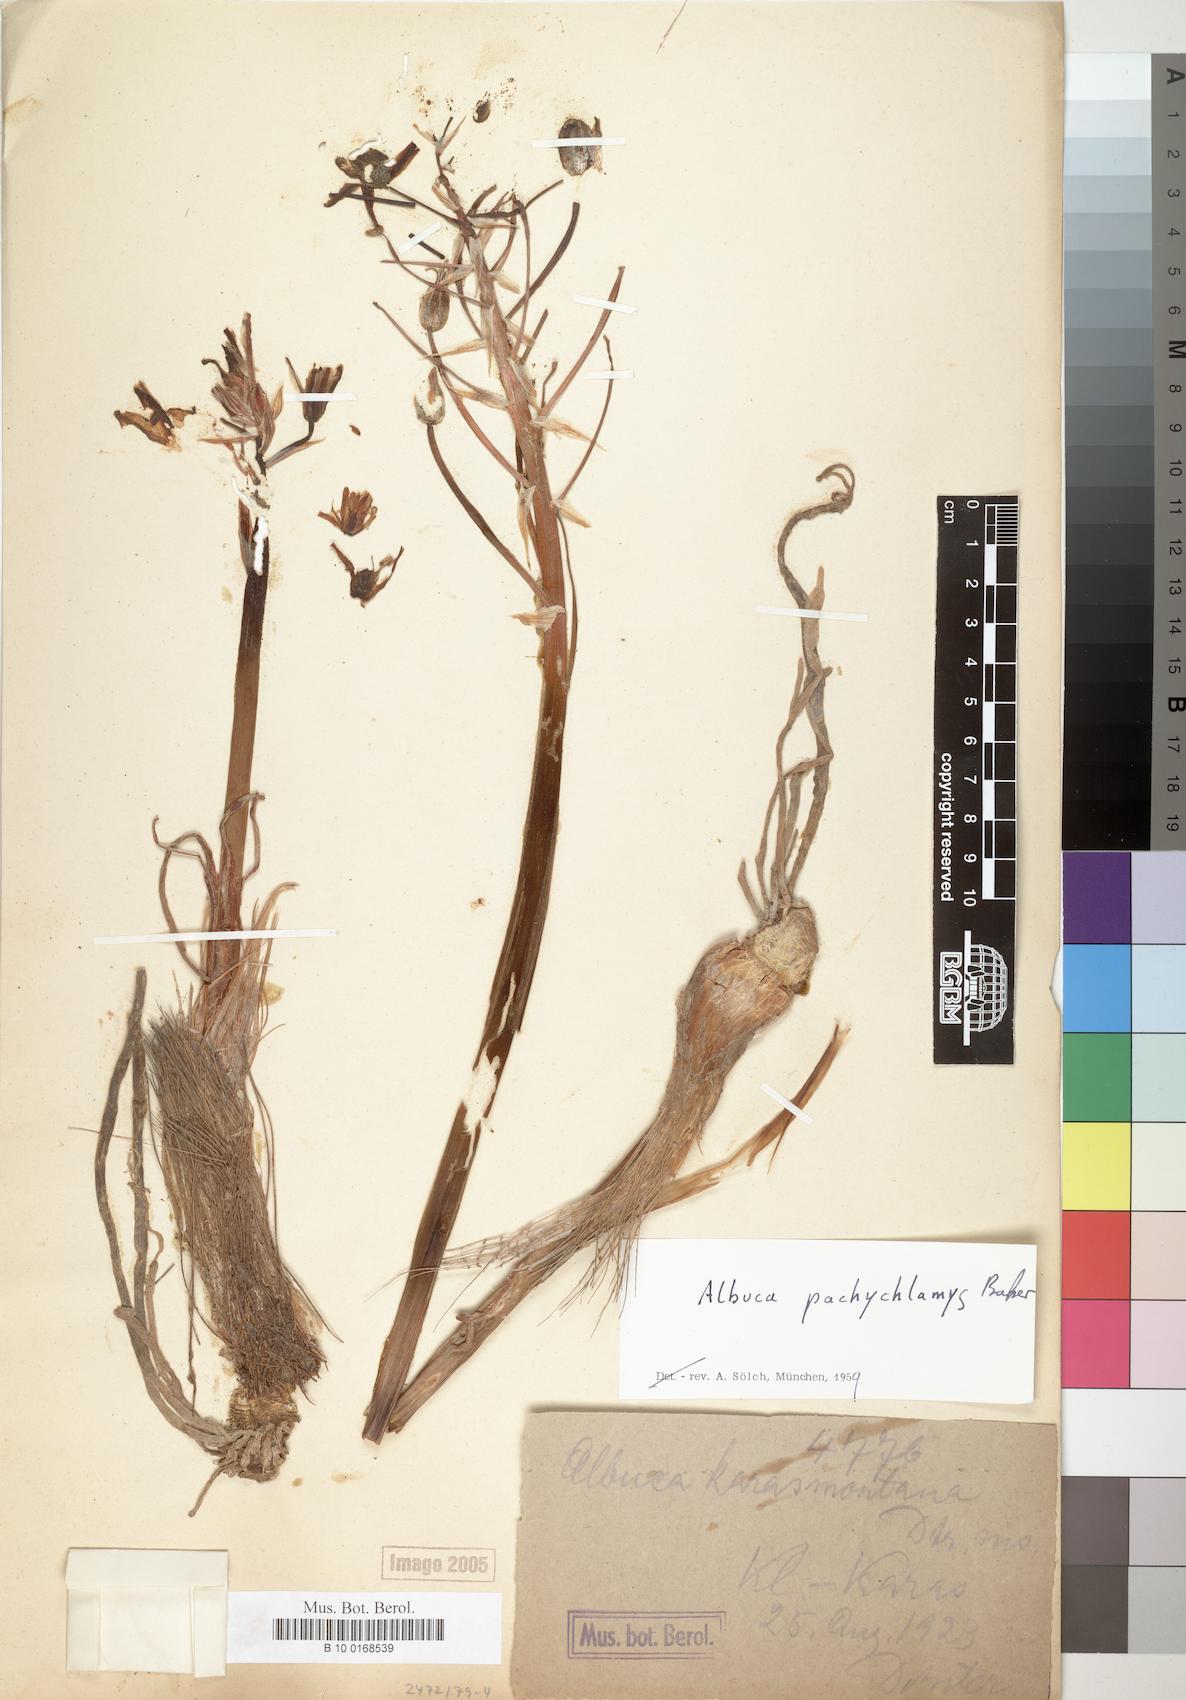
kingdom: Plantae
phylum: Tracheophyta
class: Liliopsida
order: Asparagales
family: Asparagaceae
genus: Albuca
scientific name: Albuca setosa
